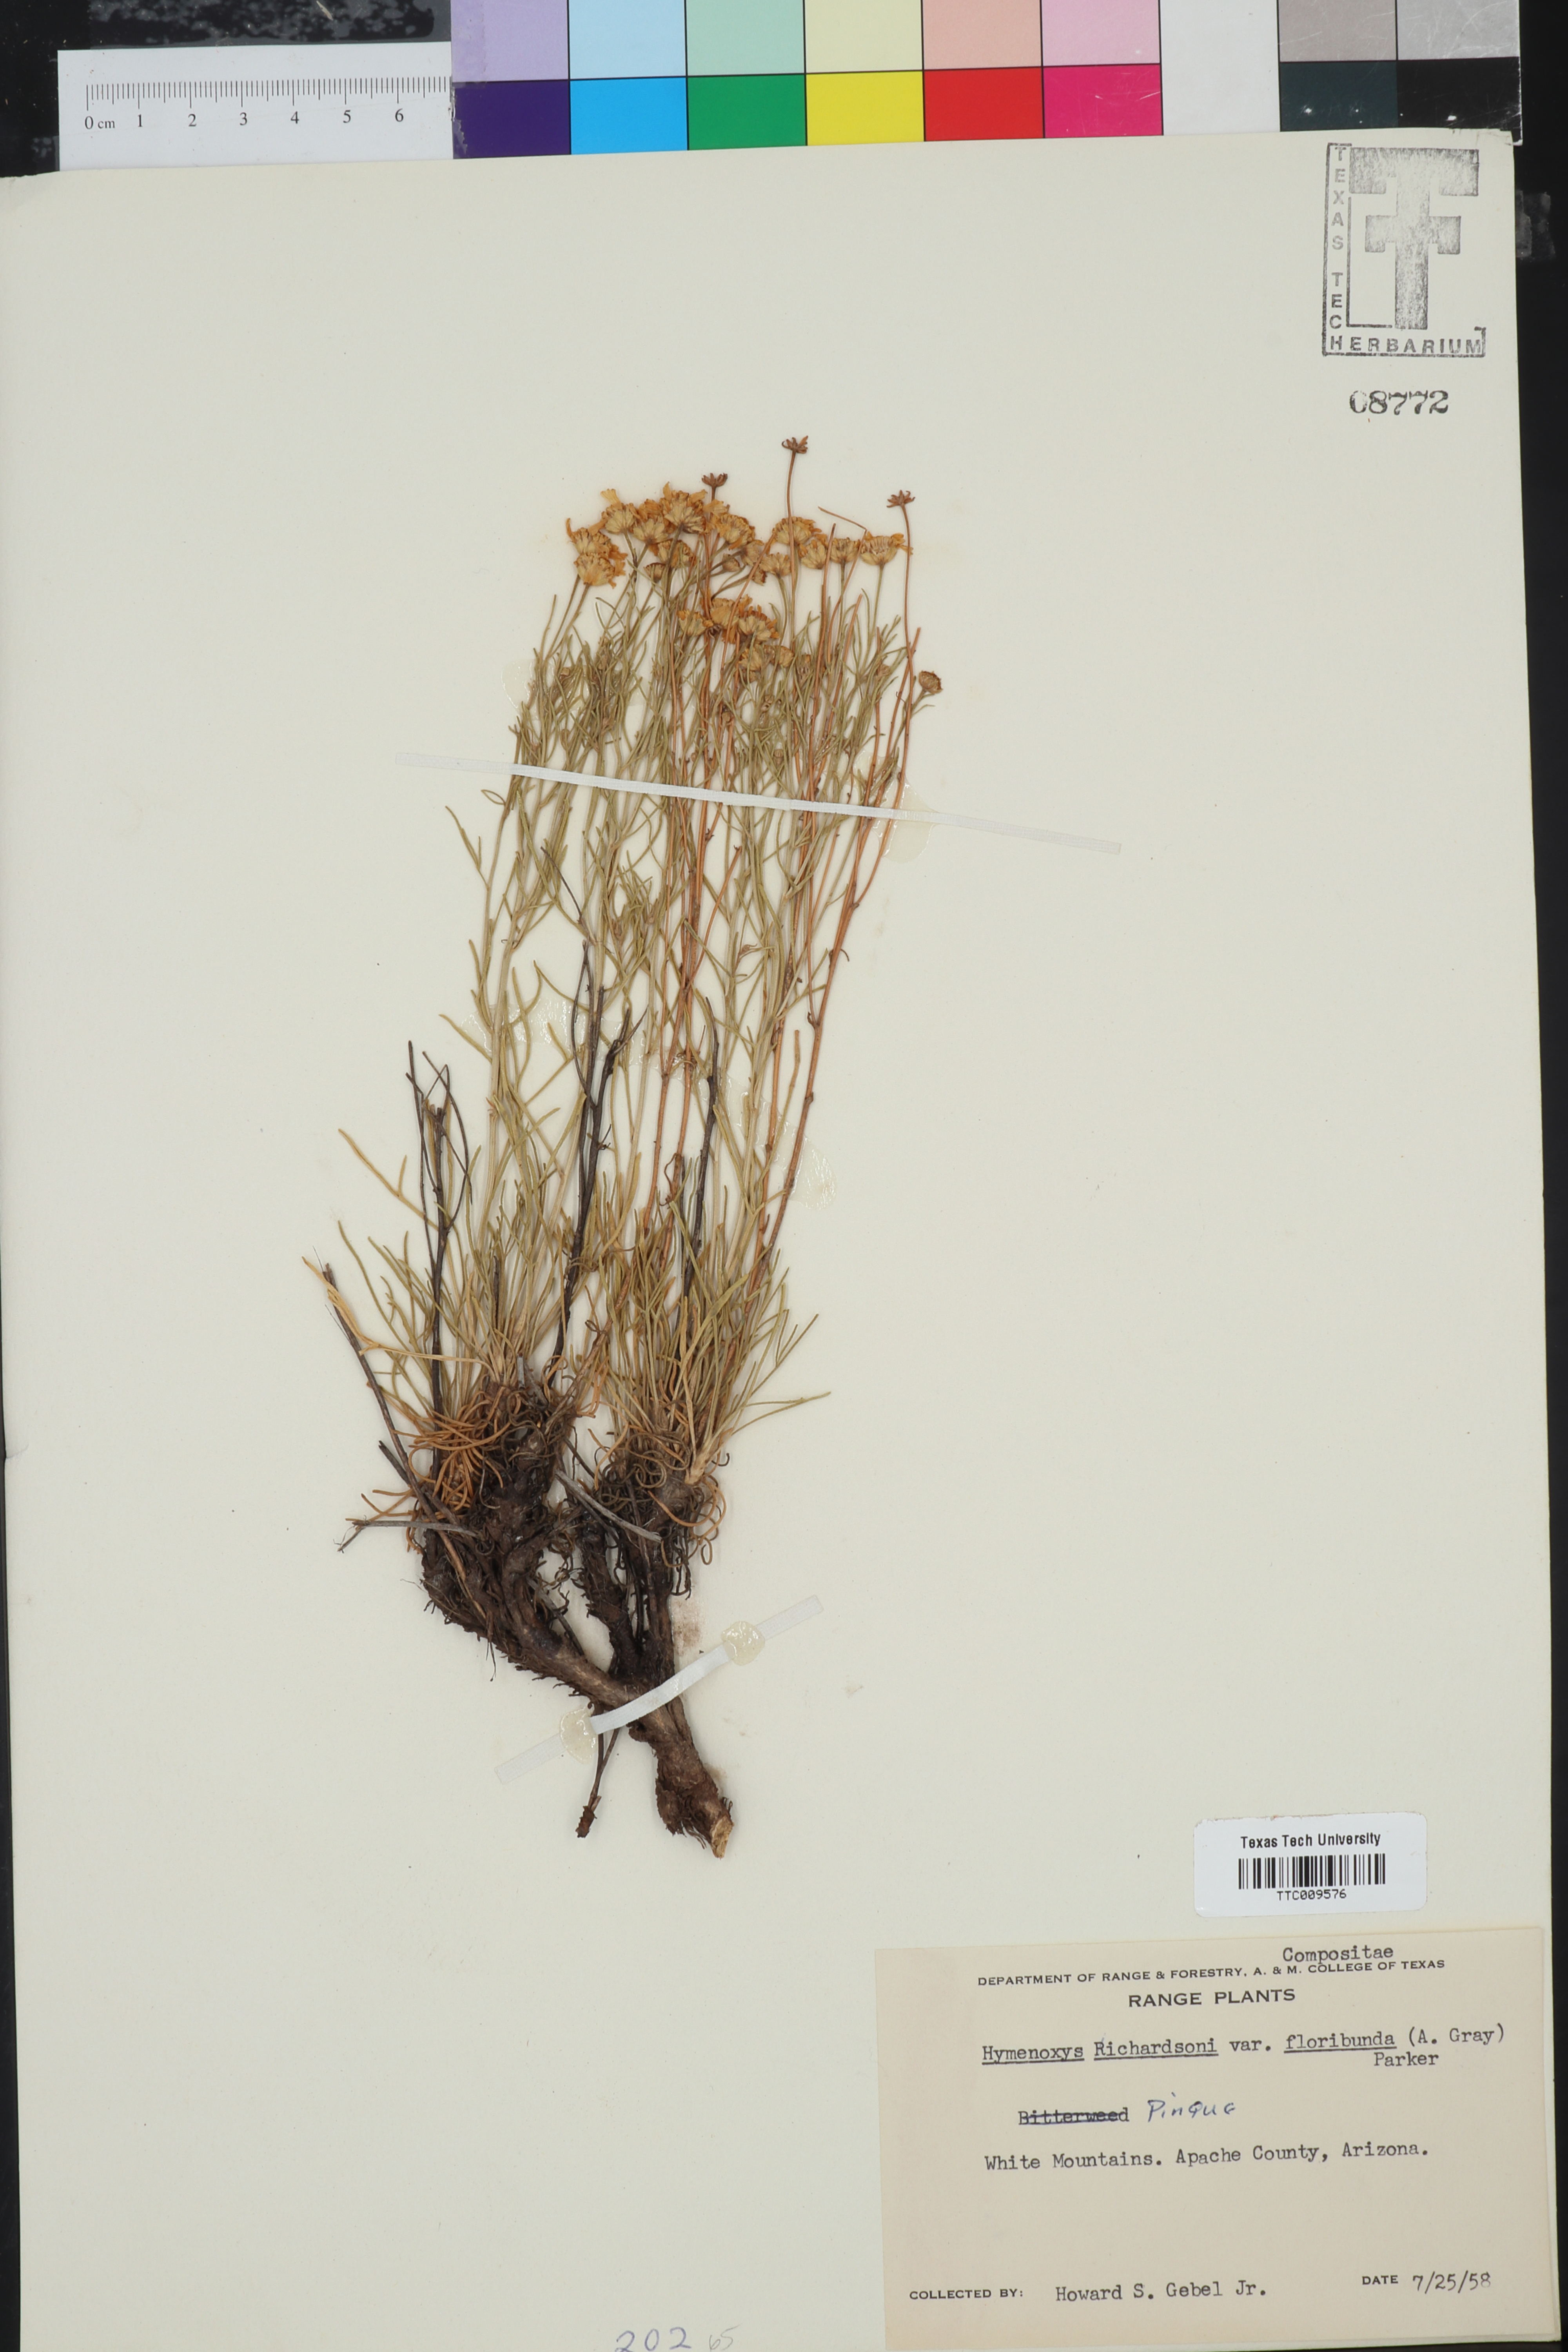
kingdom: Plantae
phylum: Tracheophyta
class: Magnoliopsida
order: Asterales
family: Asteraceae
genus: Hymenoxys
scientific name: Hymenoxys
